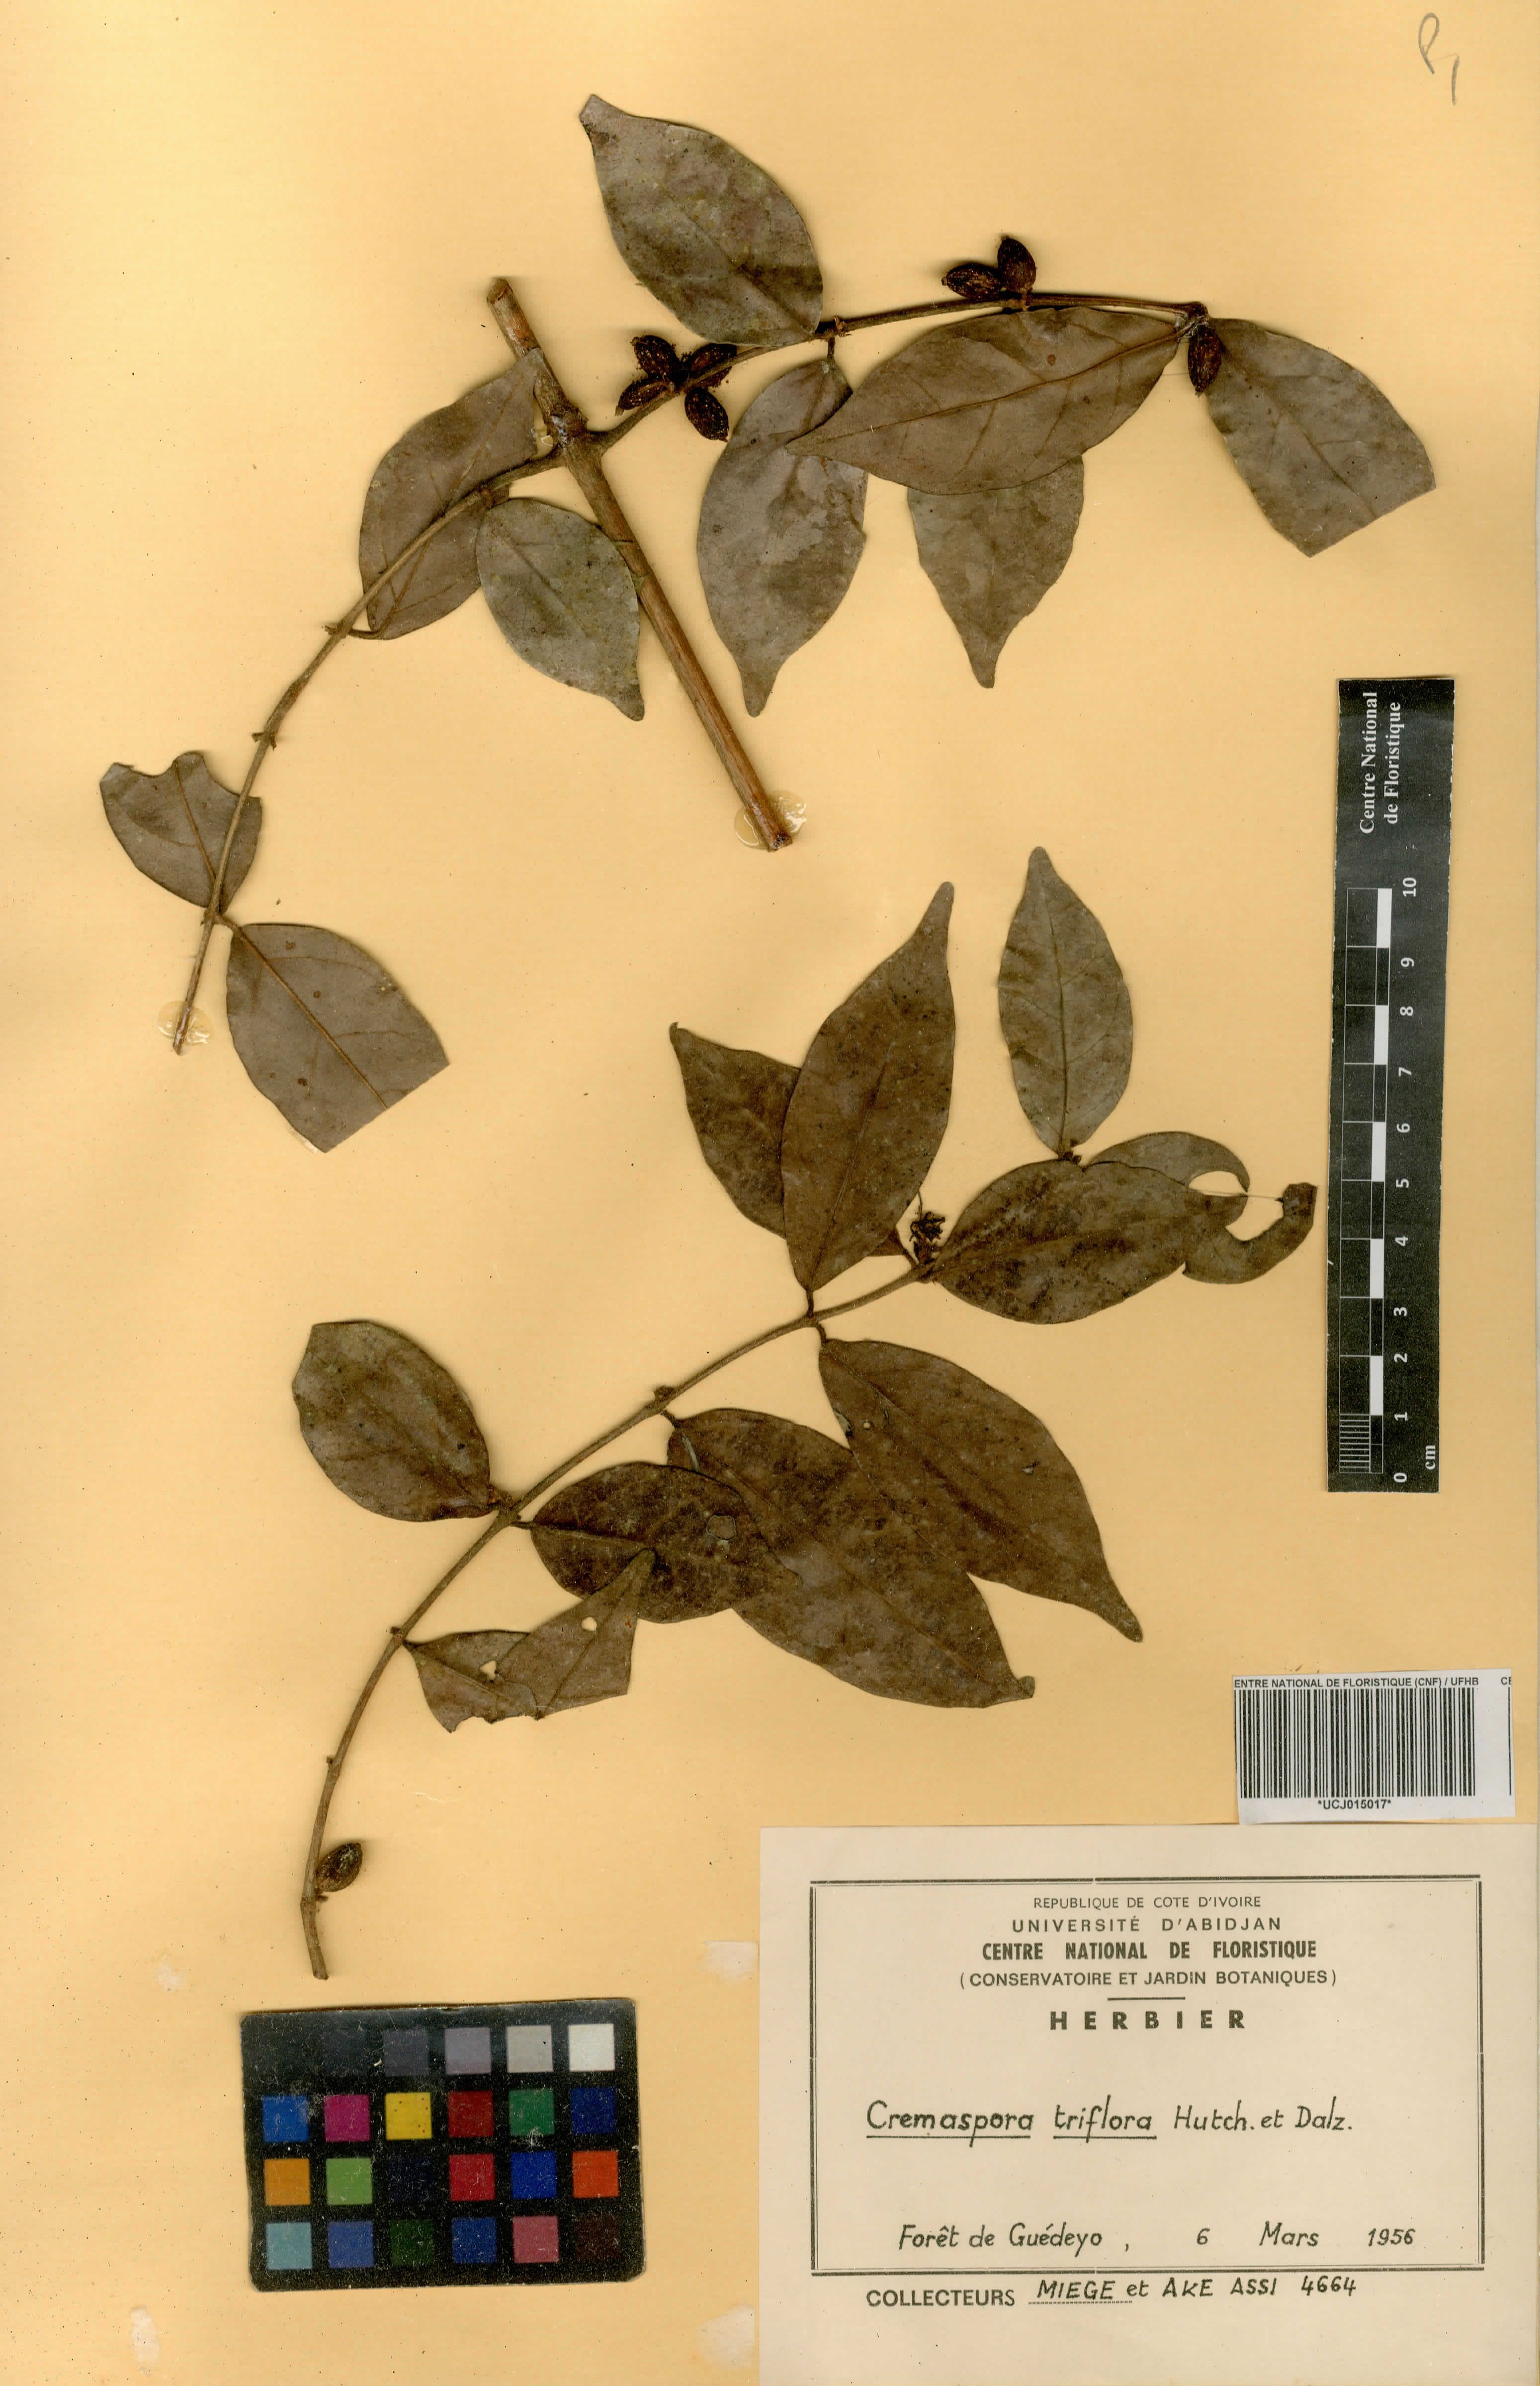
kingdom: Plantae
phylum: Tracheophyta
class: Magnoliopsida
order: Gentianales
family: Rubiaceae
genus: Cremaspora
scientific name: Cremaspora triflora
